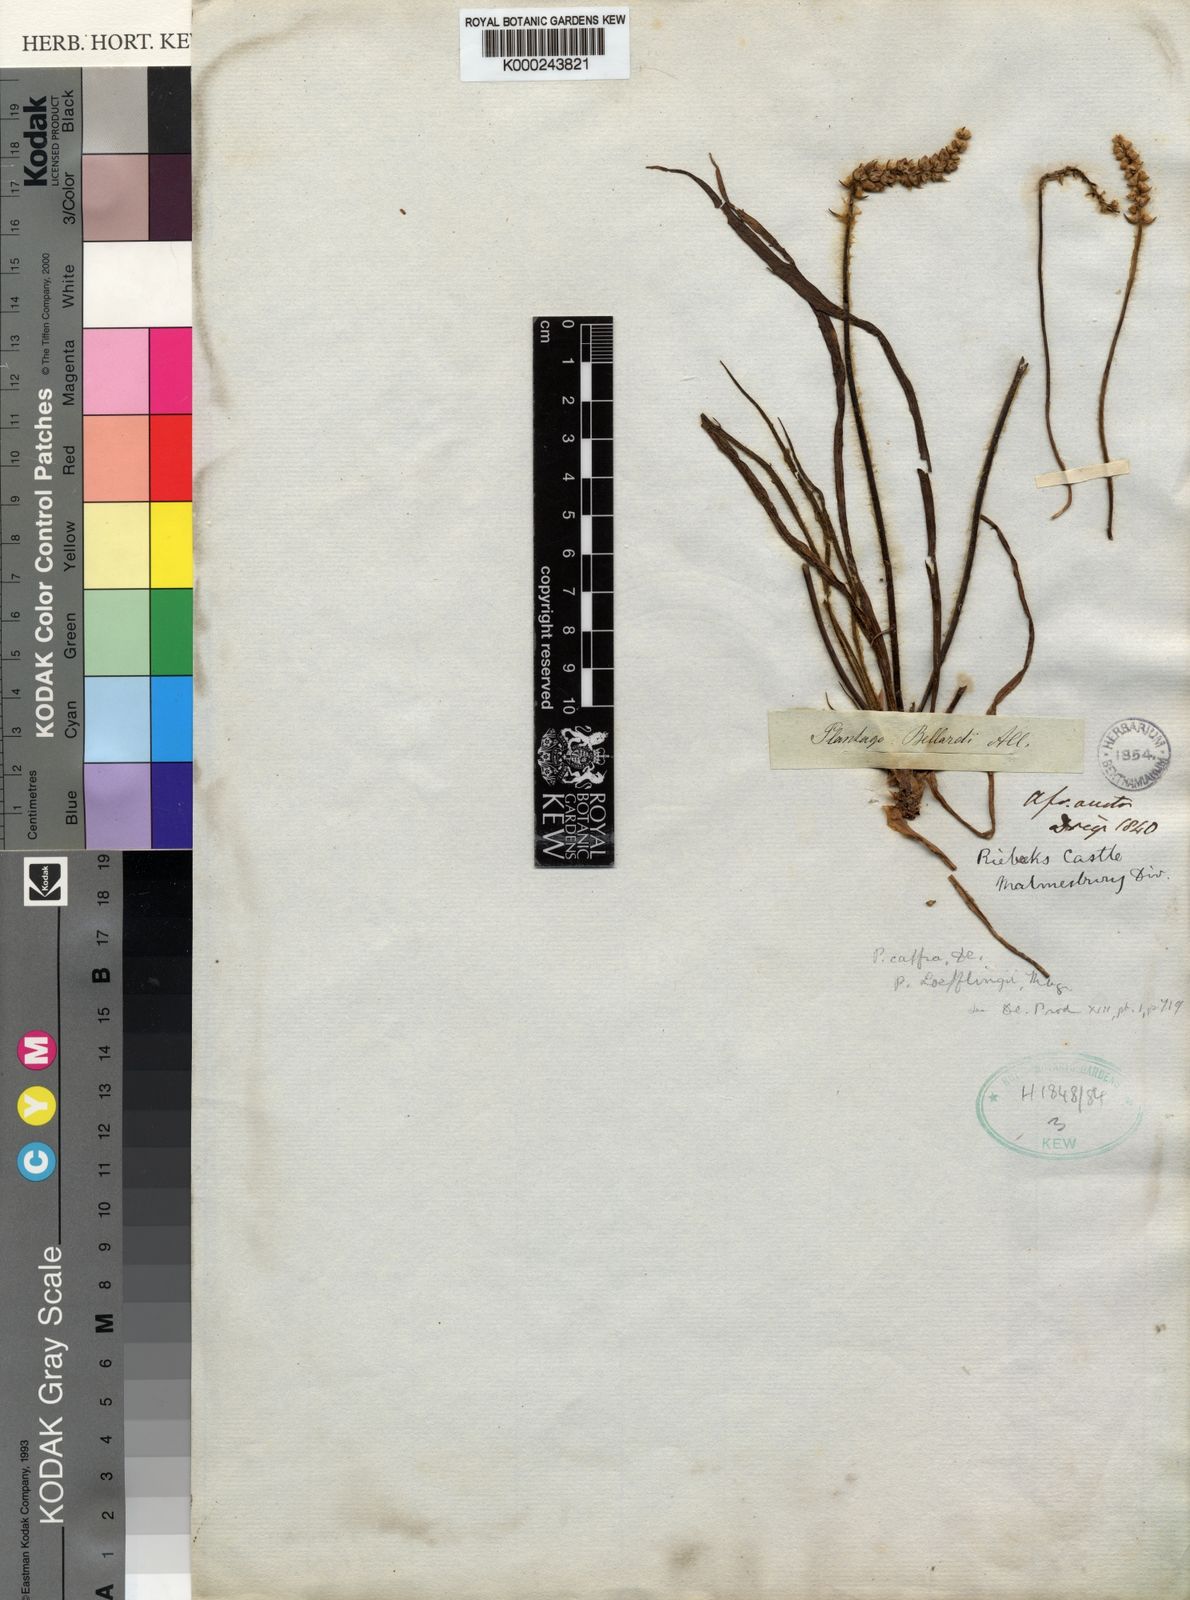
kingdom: Plantae
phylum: Tracheophyta
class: Magnoliopsida
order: Lamiales
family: Plantaginaceae
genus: Plantago
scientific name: Plantago cafra
